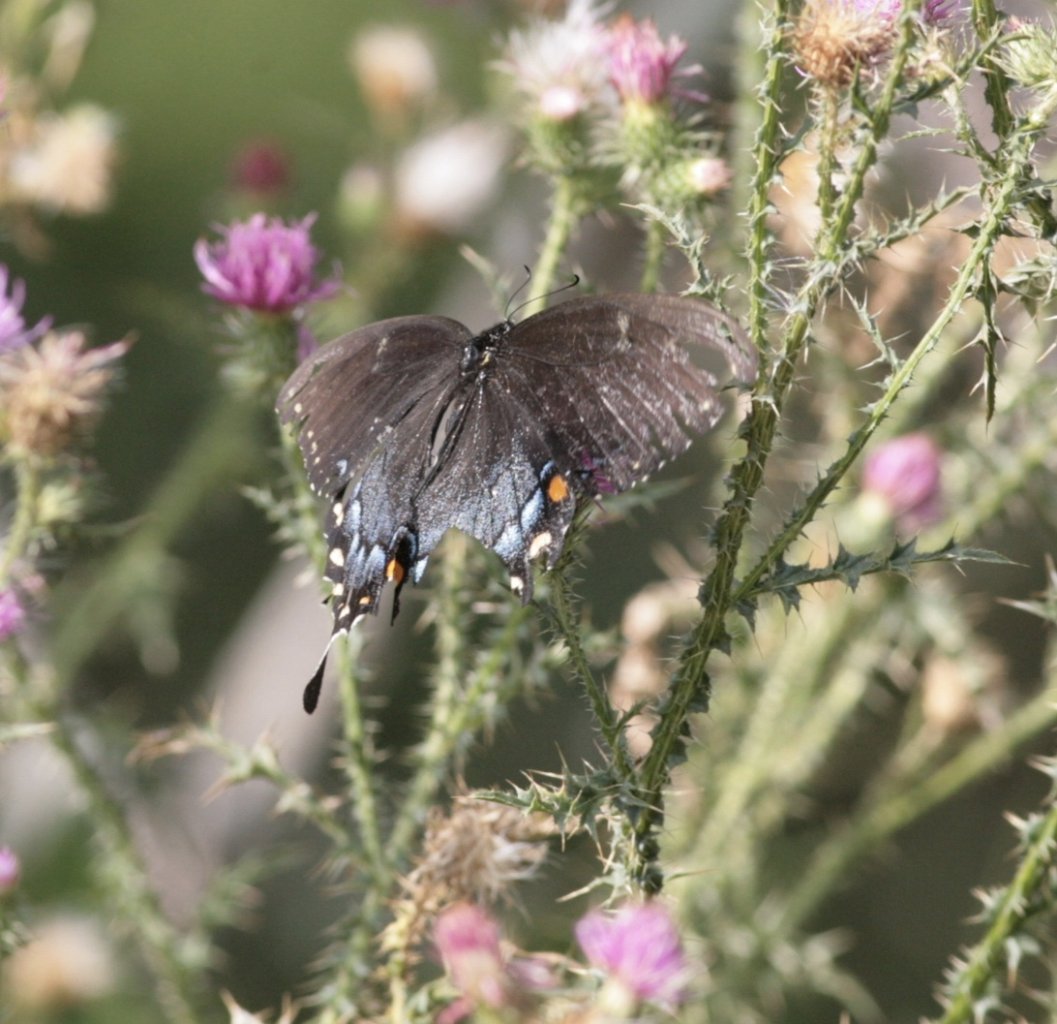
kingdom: Animalia
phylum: Arthropoda
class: Insecta
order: Lepidoptera
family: Papilionidae
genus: Papilio
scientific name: Papilio
